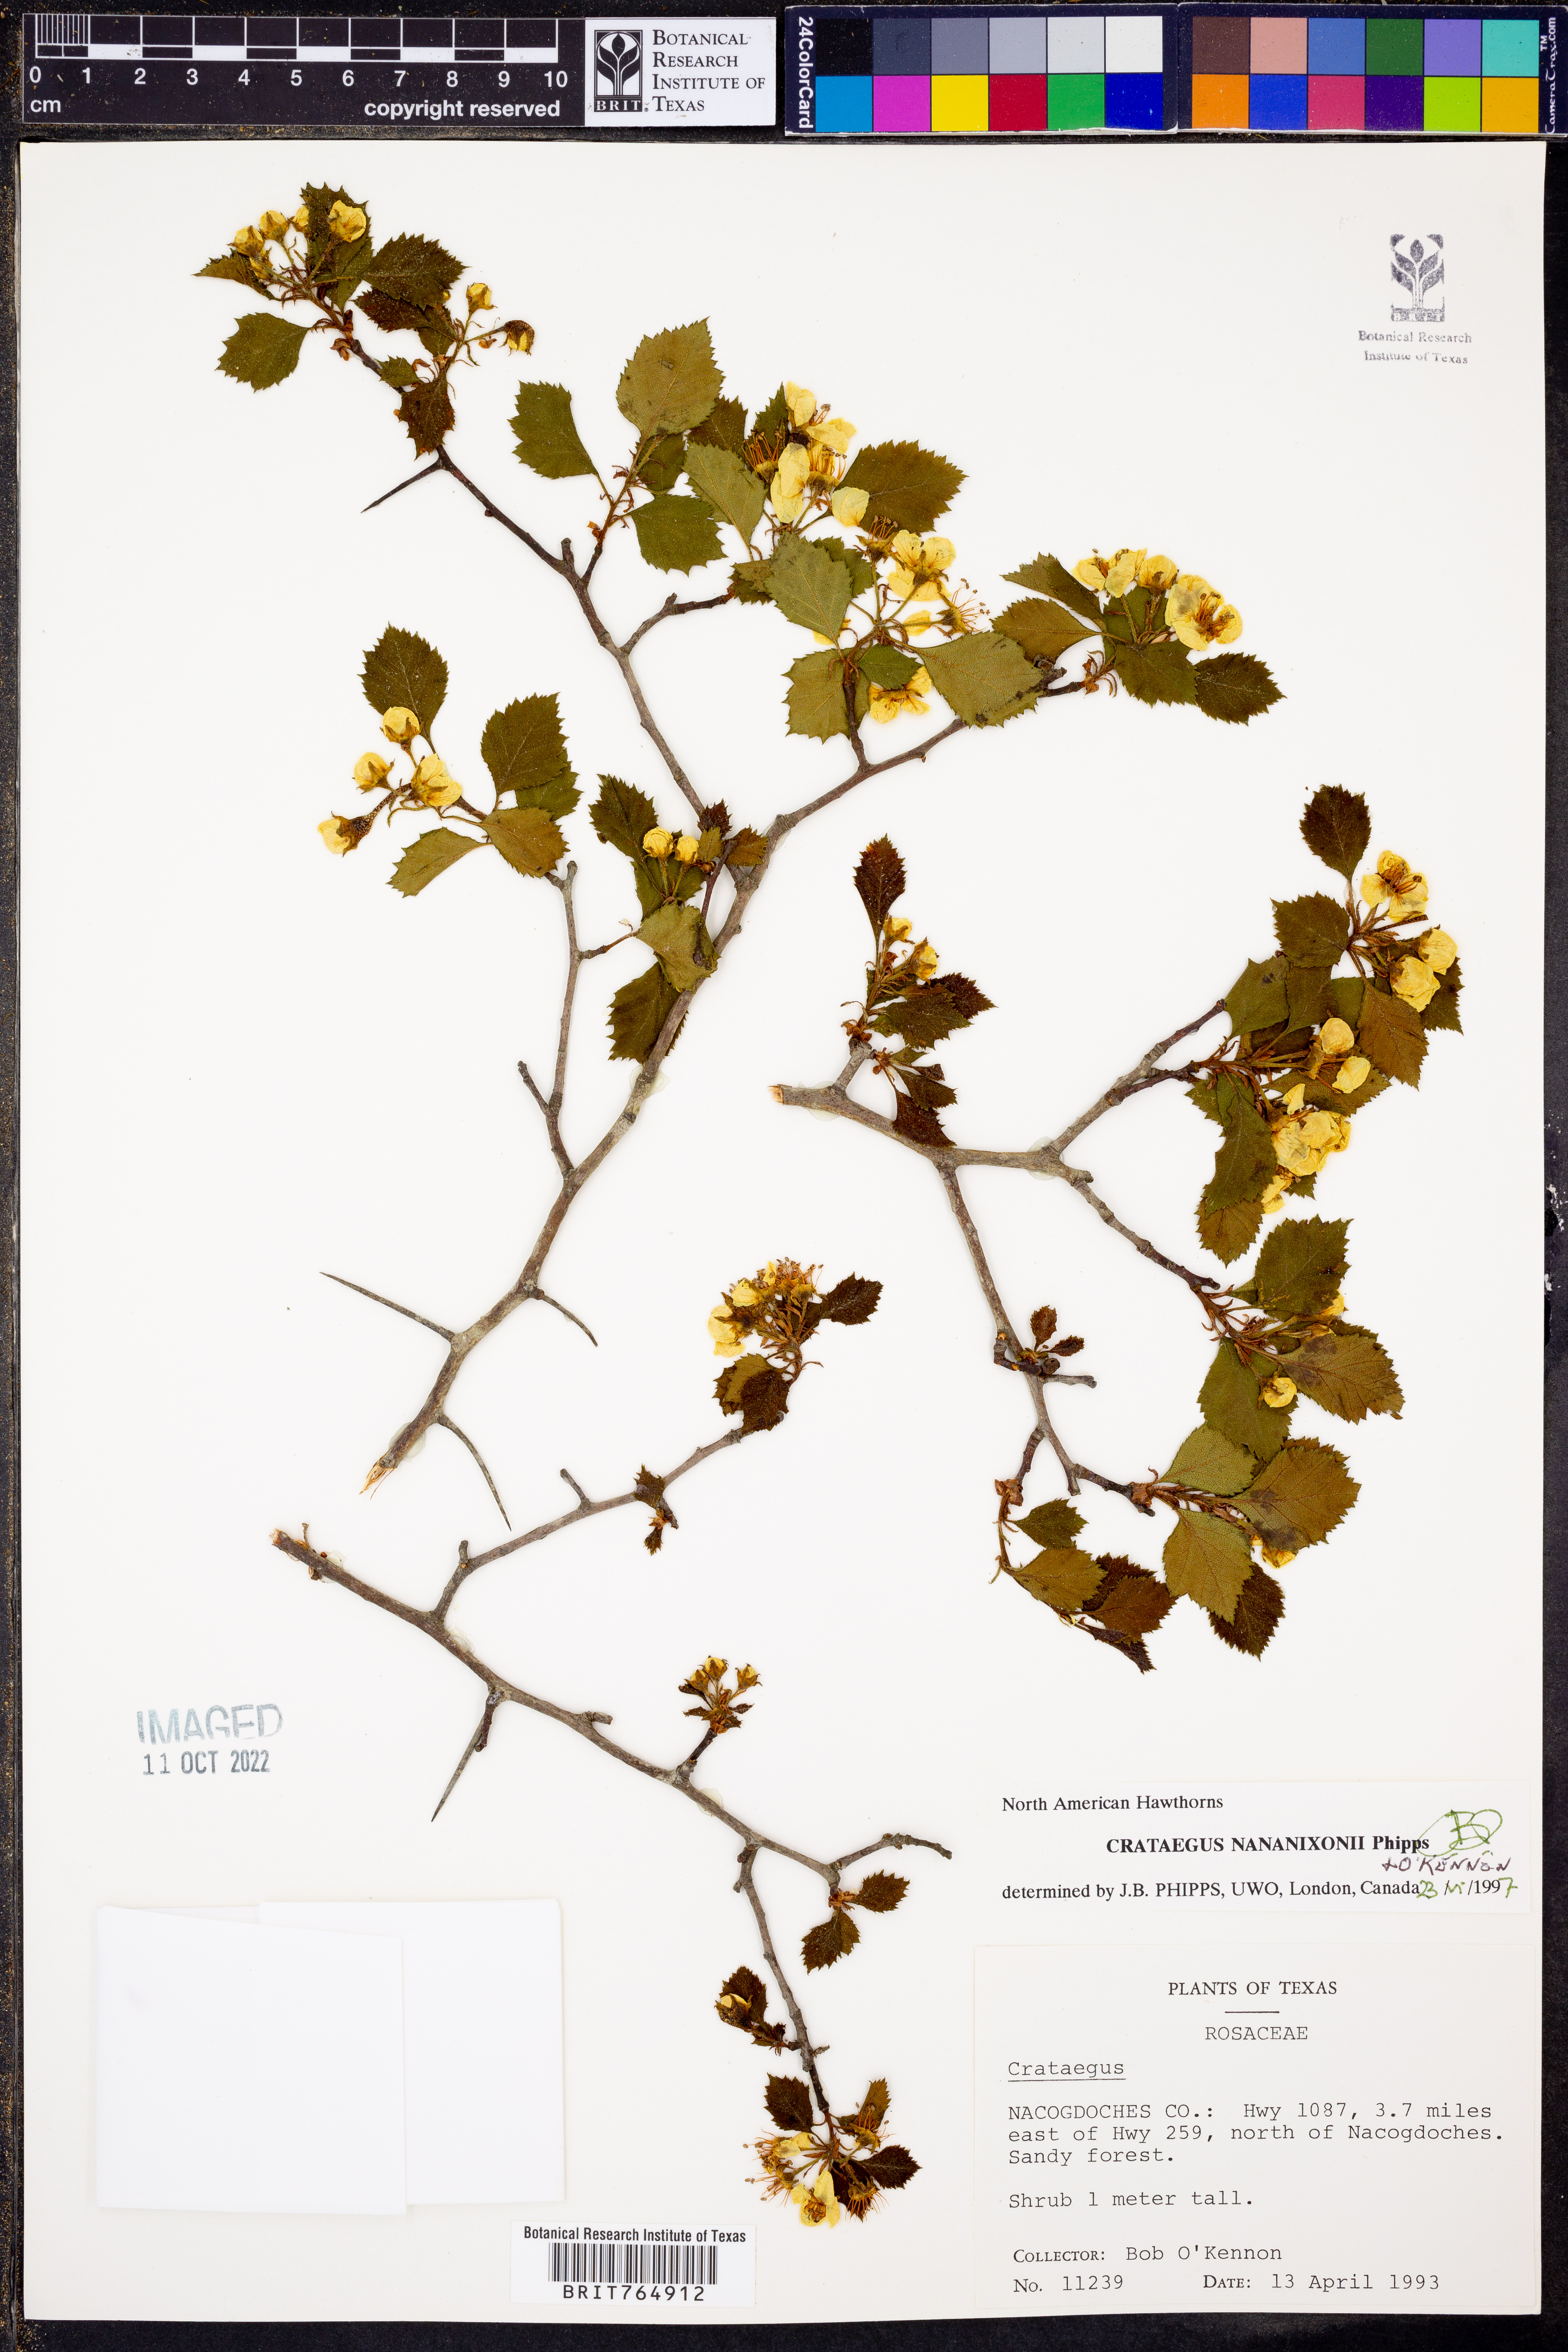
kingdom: Plantae
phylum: Tracheophyta
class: Magnoliopsida
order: Rosales
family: Rosaceae
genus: Crataegus
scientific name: Crataegus nananixonii
